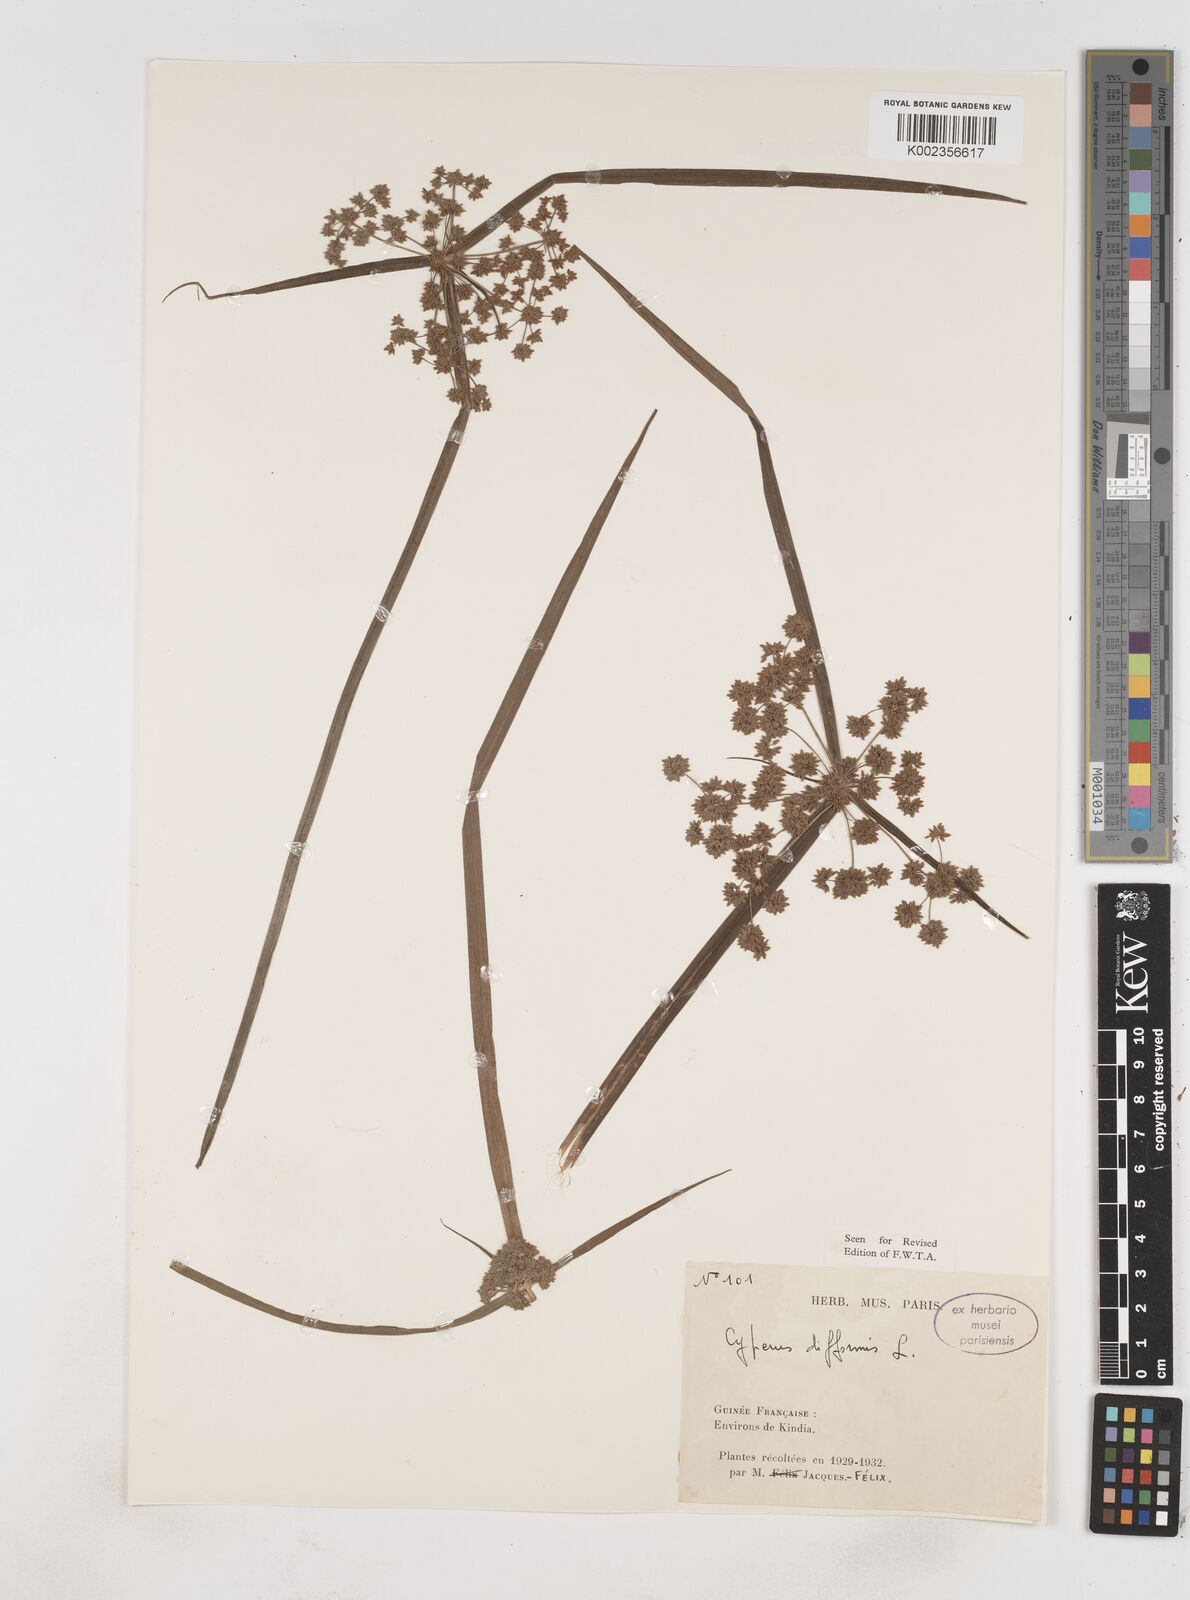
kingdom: Plantae
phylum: Tracheophyta
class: Liliopsida
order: Poales
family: Cyperaceae
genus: Cyperus
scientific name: Cyperus difformis
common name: Variable flatsedge
